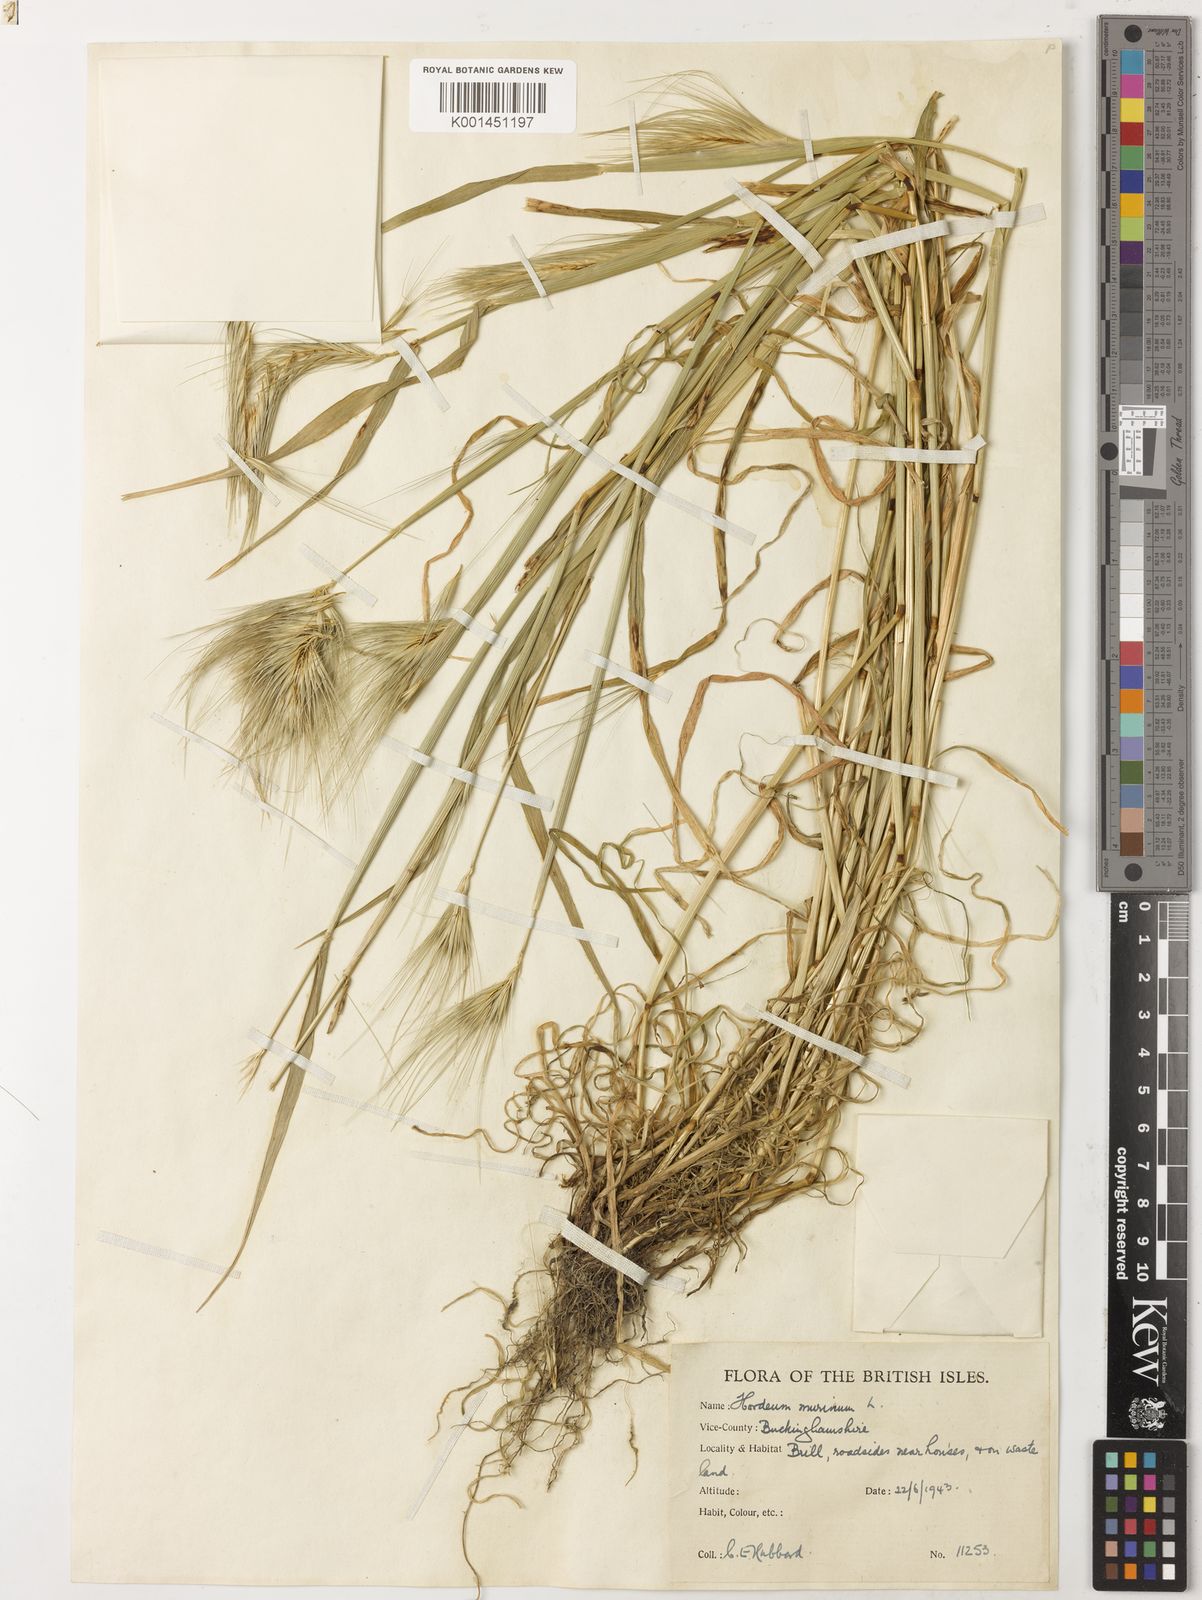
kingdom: Plantae
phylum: Tracheophyta
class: Liliopsida
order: Poales
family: Poaceae
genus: Hordeum
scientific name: Hordeum murinum
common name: Wall barley
